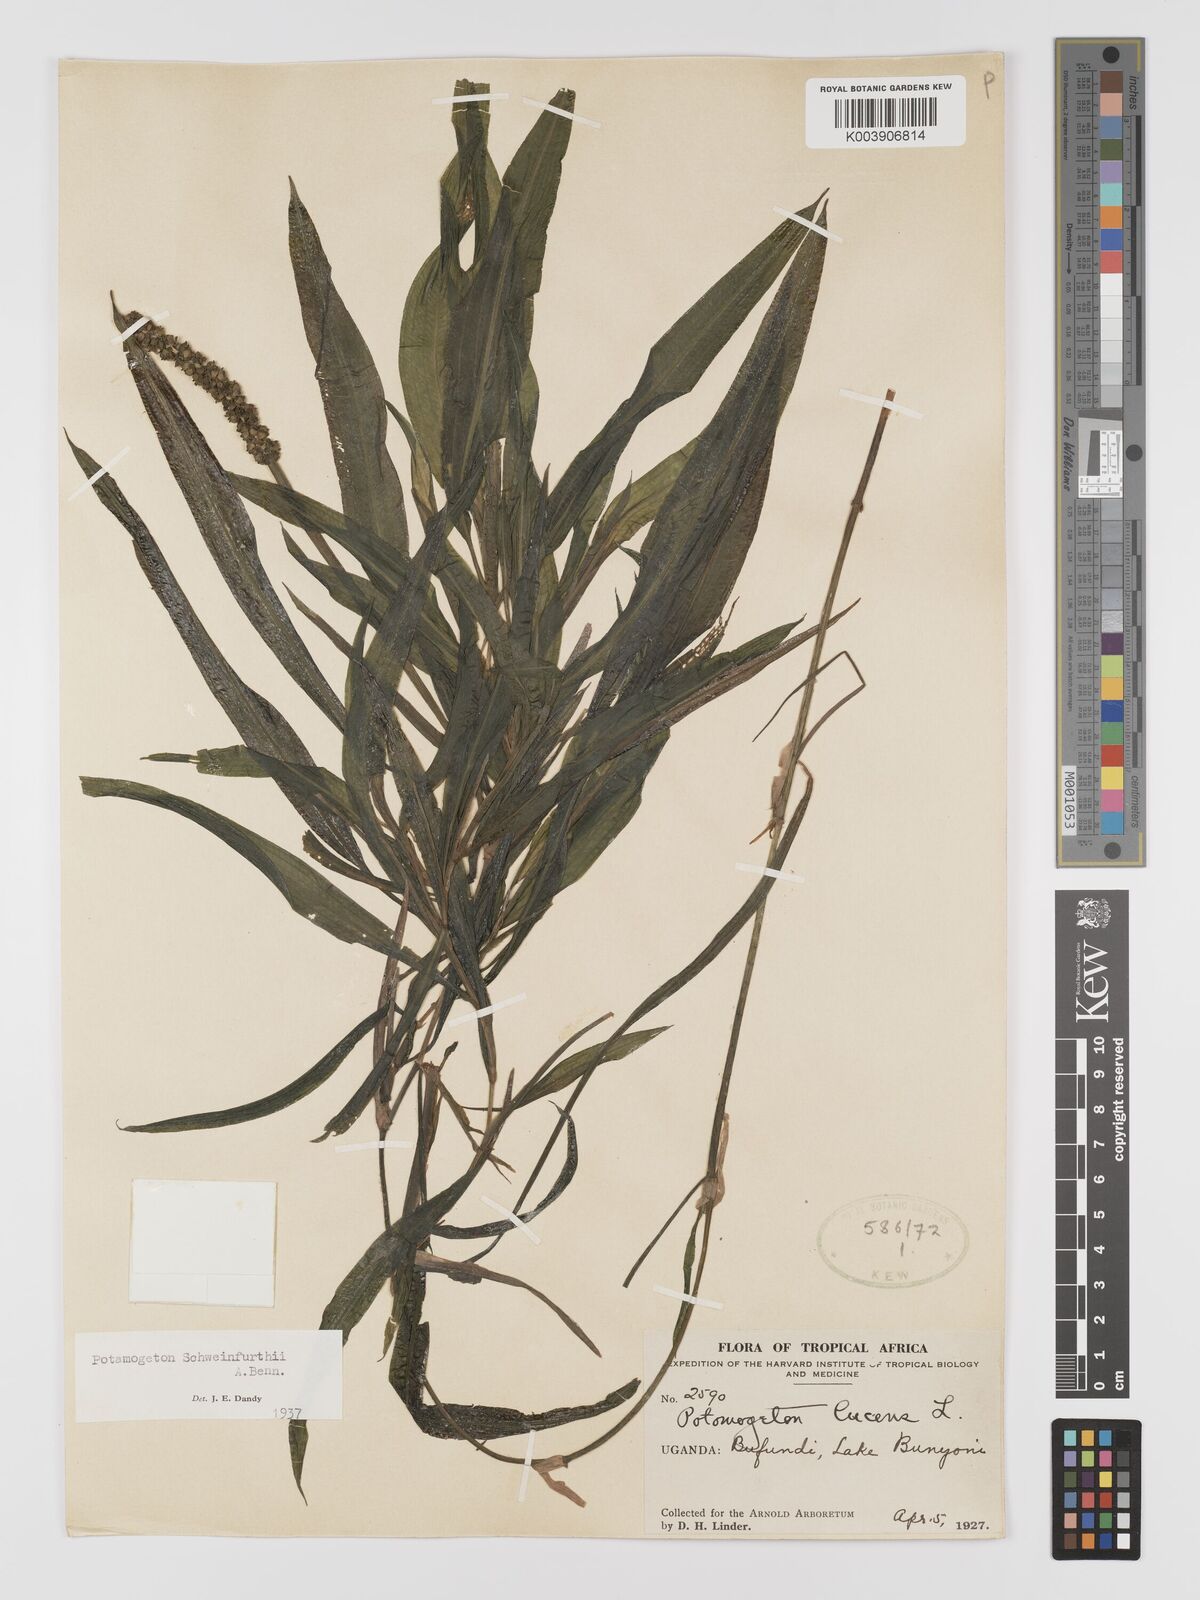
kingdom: Plantae
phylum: Tracheophyta
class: Liliopsida
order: Alismatales
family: Potamogetonaceae
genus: Potamogeton
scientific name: Potamogeton schweinfurthii
